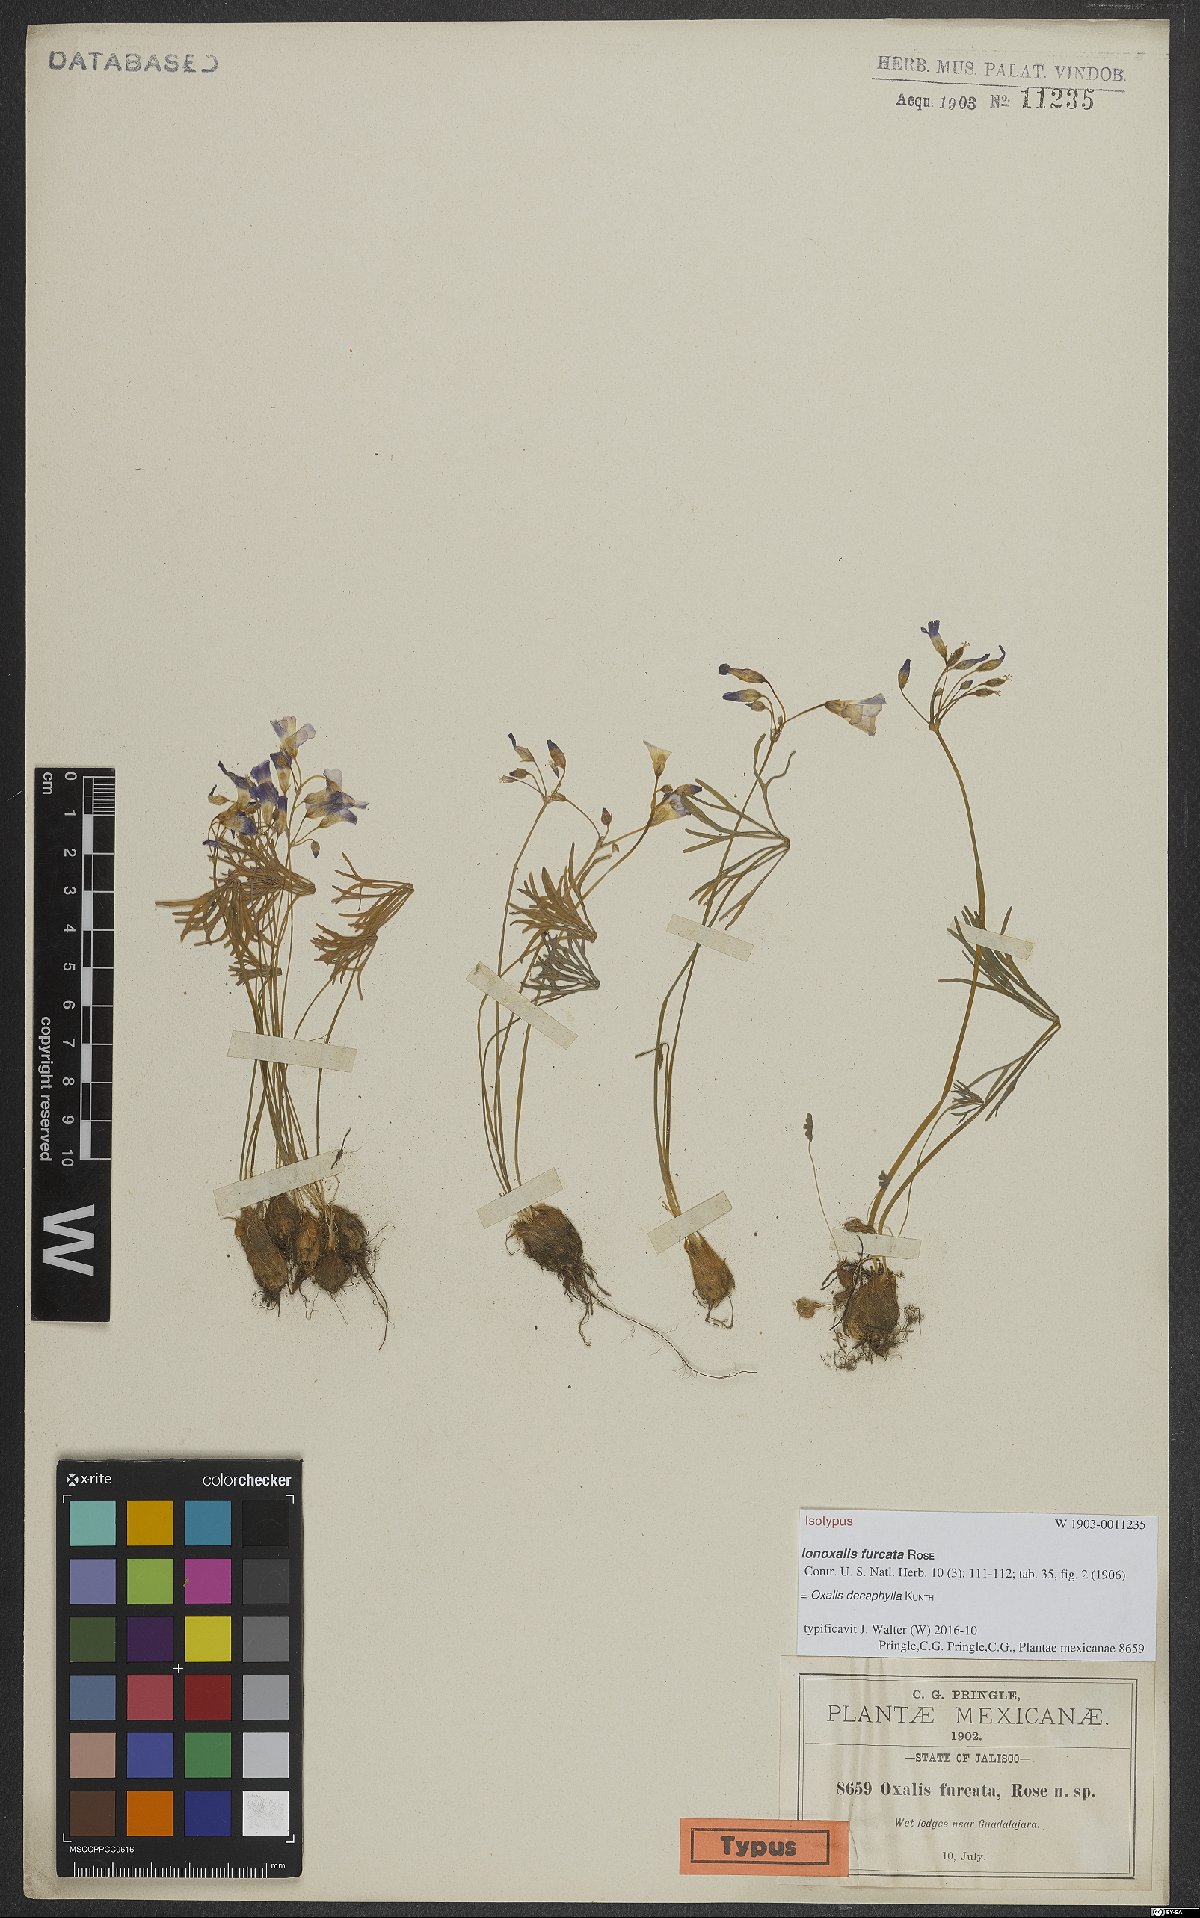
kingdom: Plantae
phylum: Tracheophyta
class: Magnoliopsida
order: Oxalidales
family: Oxalidaceae
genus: Oxalis
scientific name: Oxalis decaphylla
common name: Ten-leaved pink-sorrel
